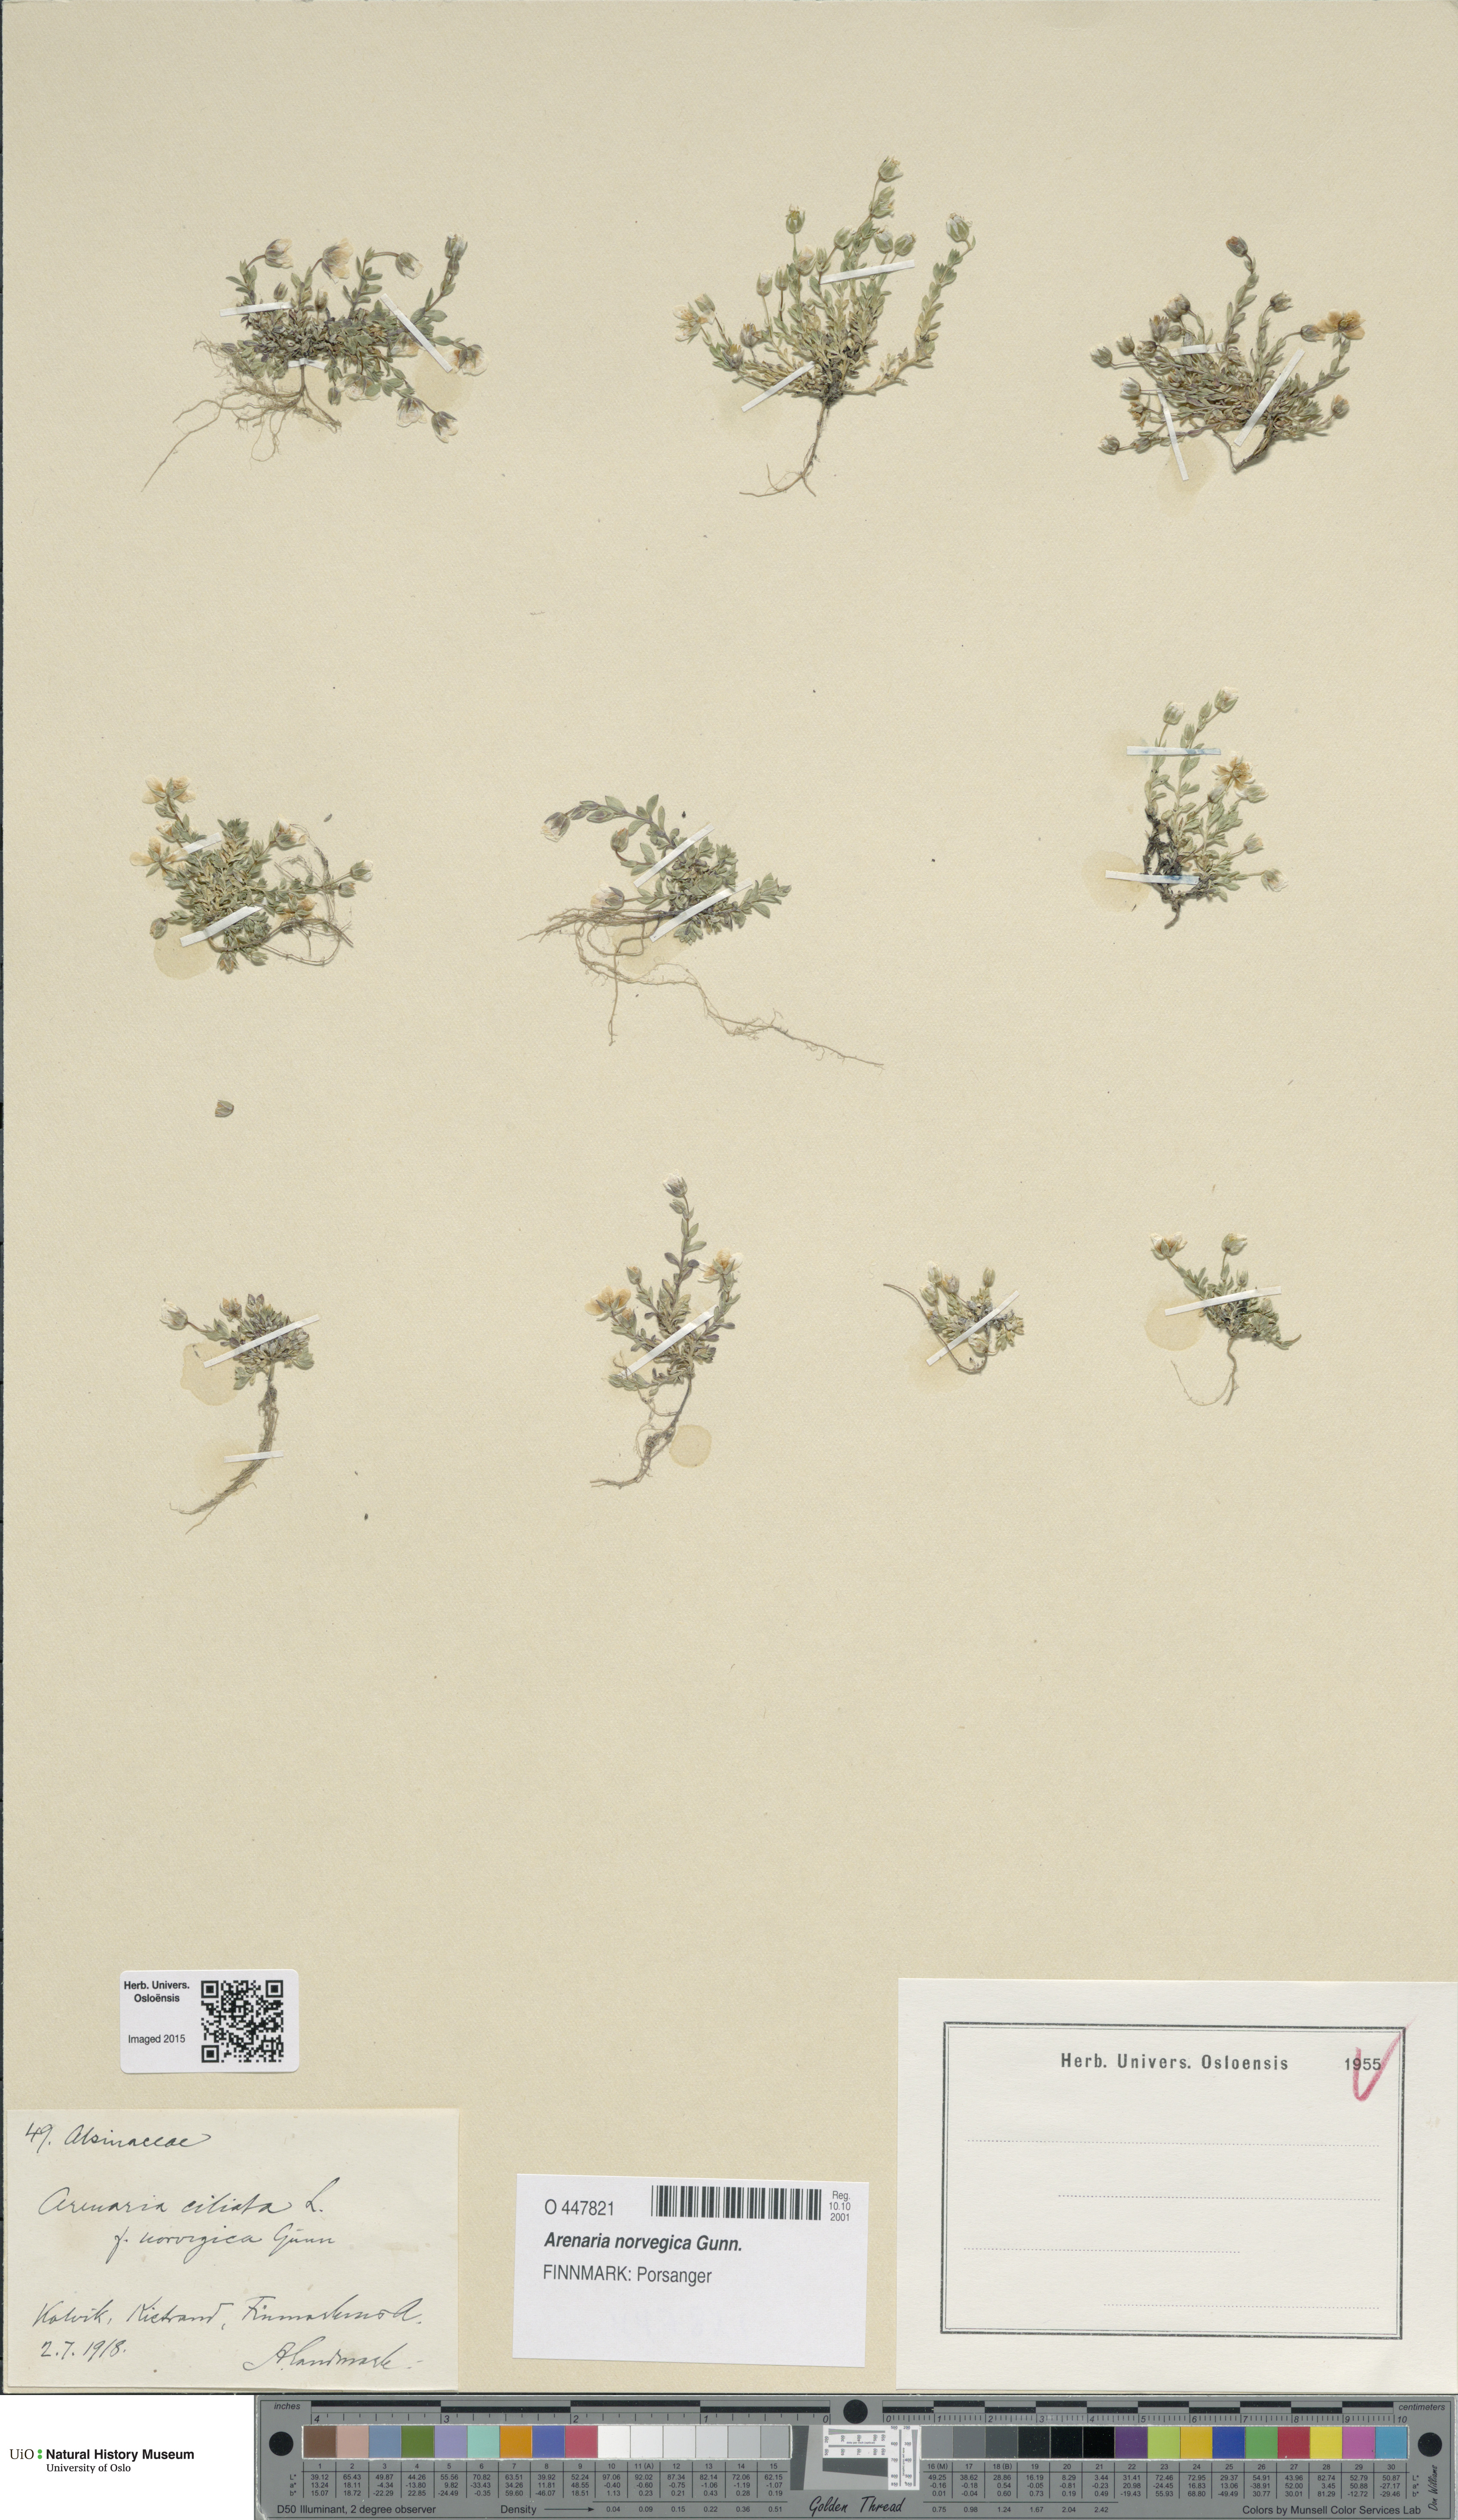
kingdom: Plantae
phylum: Tracheophyta
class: Magnoliopsida
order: Caryophyllales
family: Caryophyllaceae
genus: Arenaria
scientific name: Arenaria norvegica
